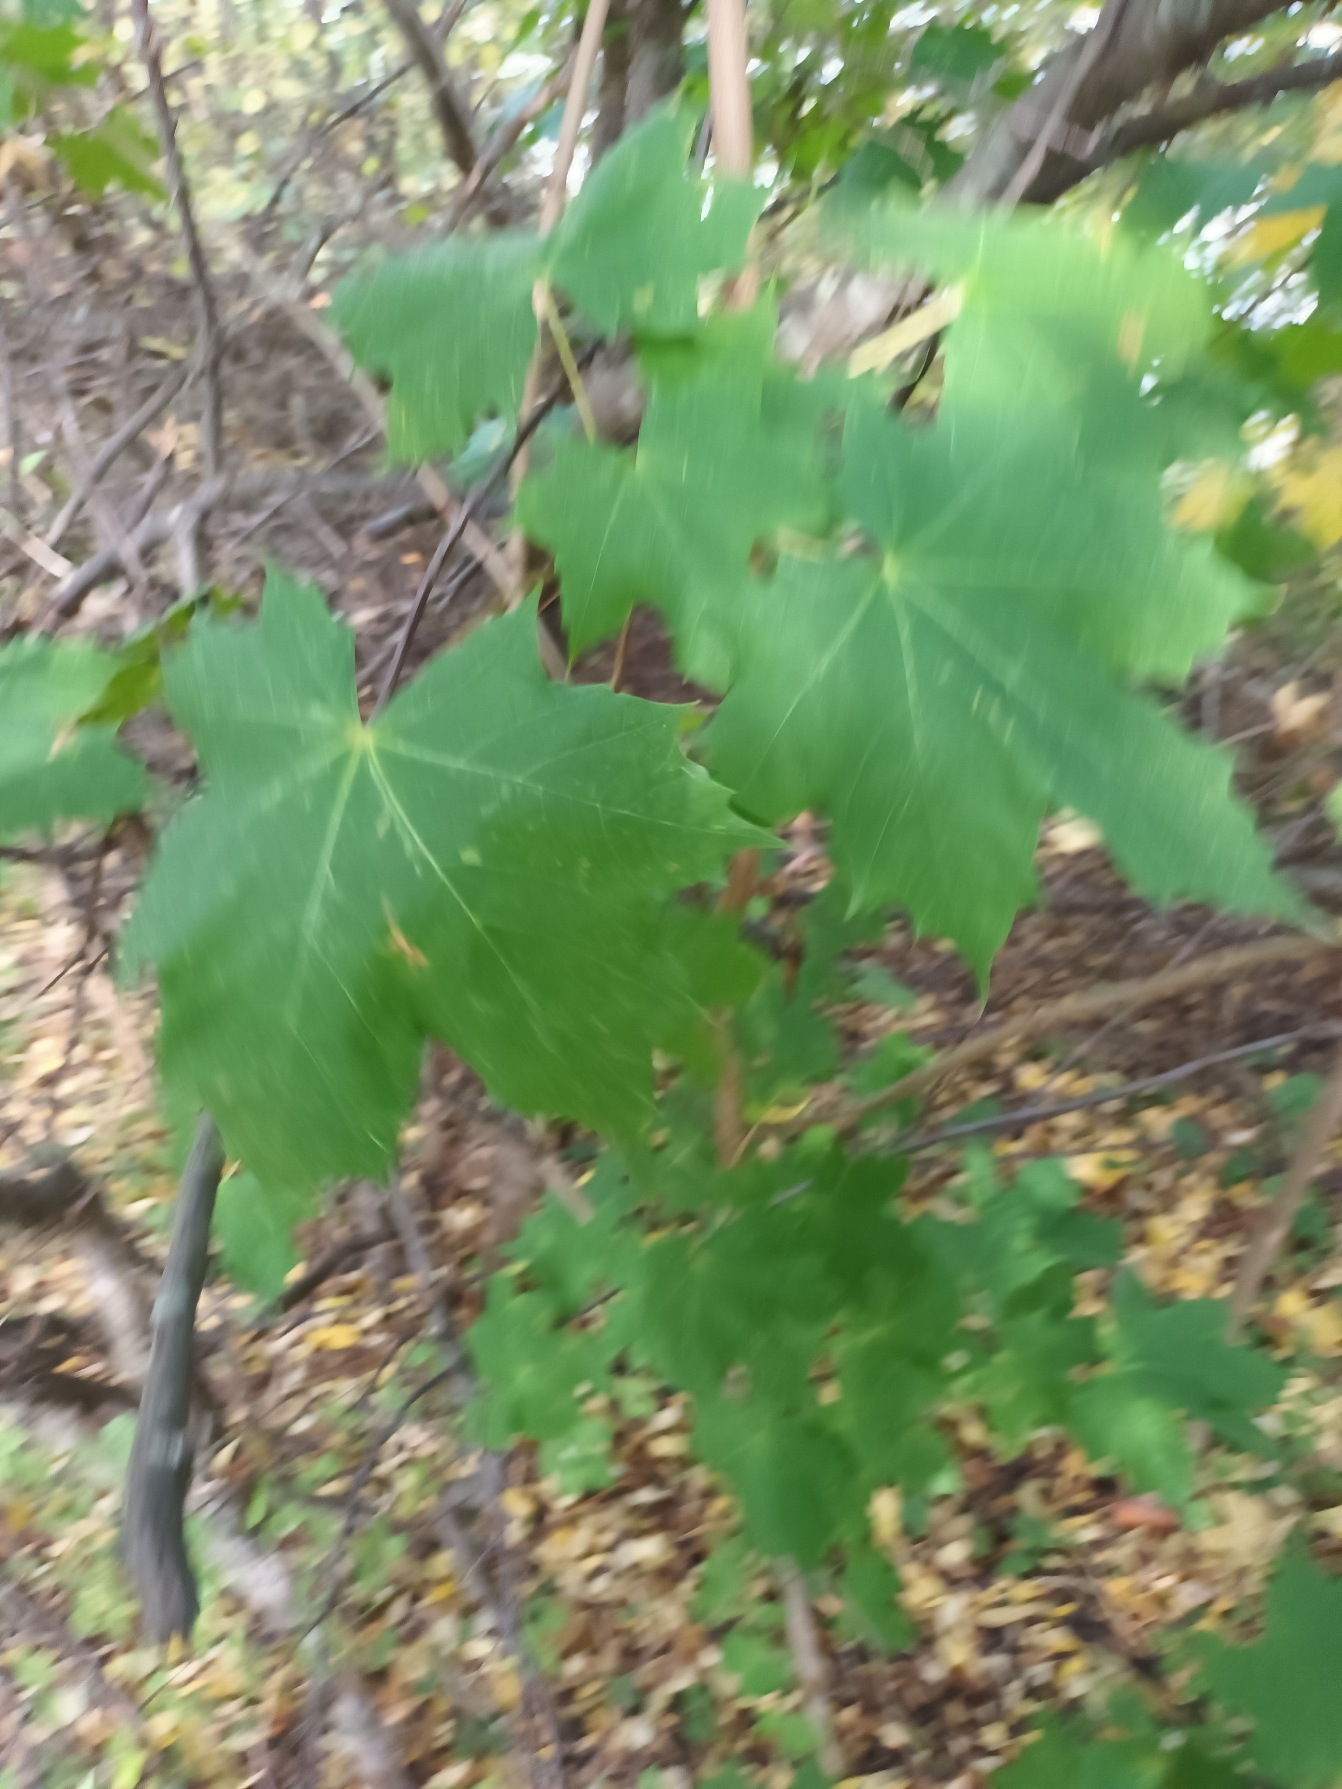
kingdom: Plantae
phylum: Tracheophyta
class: Magnoliopsida
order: Sapindales
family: Sapindaceae
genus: Acer
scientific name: Acer platanoides
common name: Spids-løn
